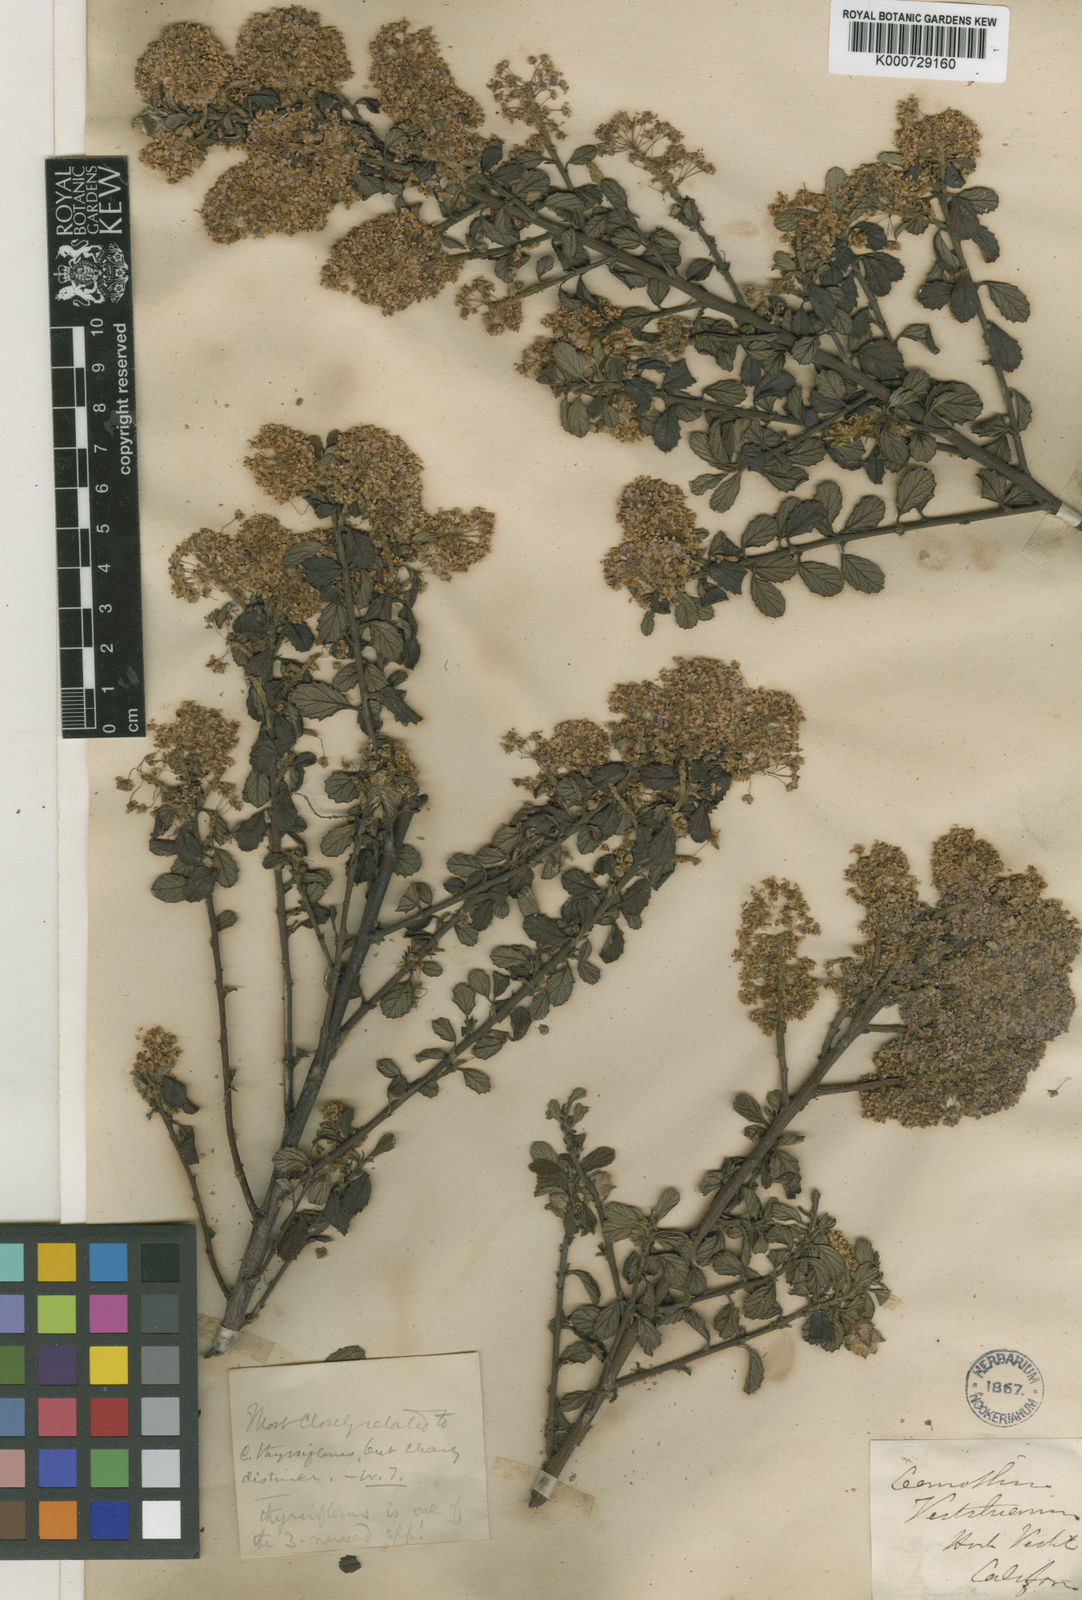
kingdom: Plantae
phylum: Tracheophyta
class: Magnoliopsida
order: Rosales
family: Rhamnaceae
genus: Ceanothus
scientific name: Ceanothus veitchianus
